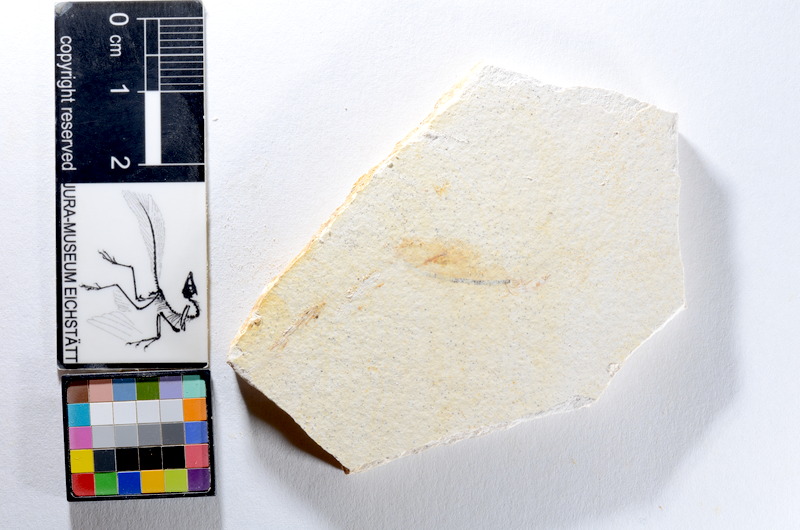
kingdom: Animalia
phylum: Chordata
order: Salmoniformes
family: Orthogonikleithridae
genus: Orthogonikleithrus
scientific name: Orthogonikleithrus hoelli
